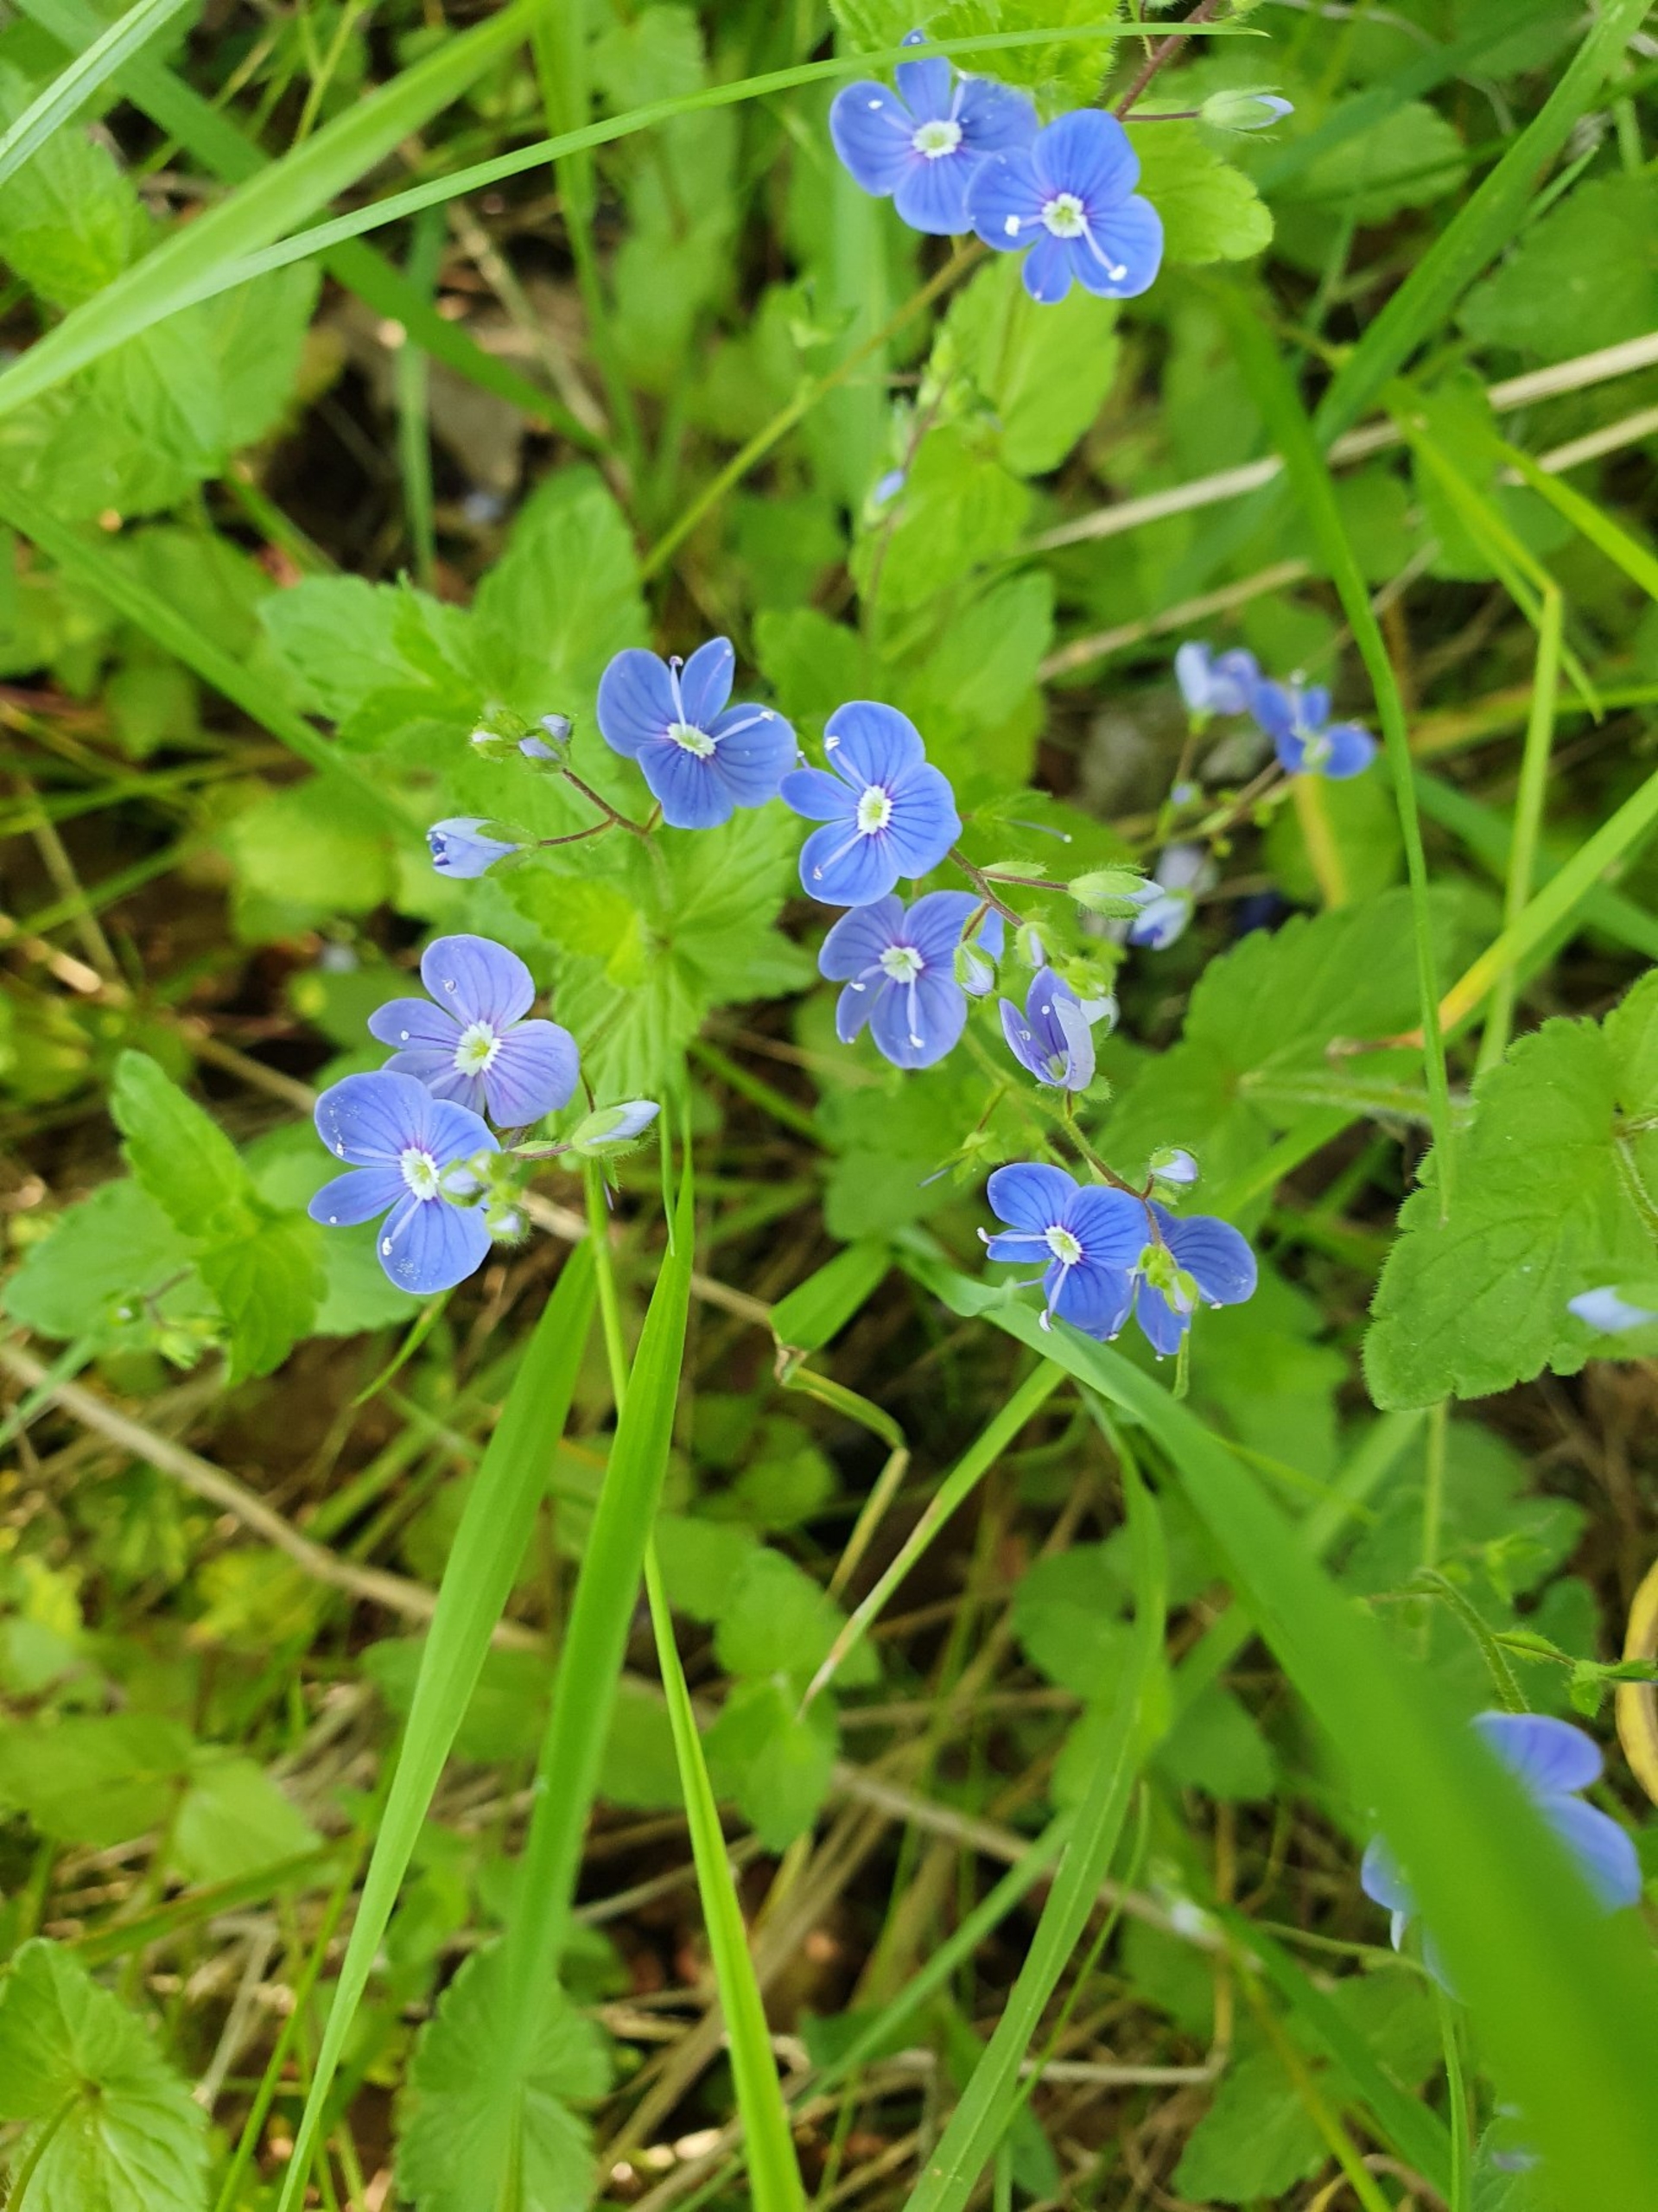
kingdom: Plantae
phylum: Tracheophyta
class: Magnoliopsida
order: Lamiales
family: Plantaginaceae
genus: Veronica
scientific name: Veronica chamaedrys
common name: Tveskægget ærenpris
